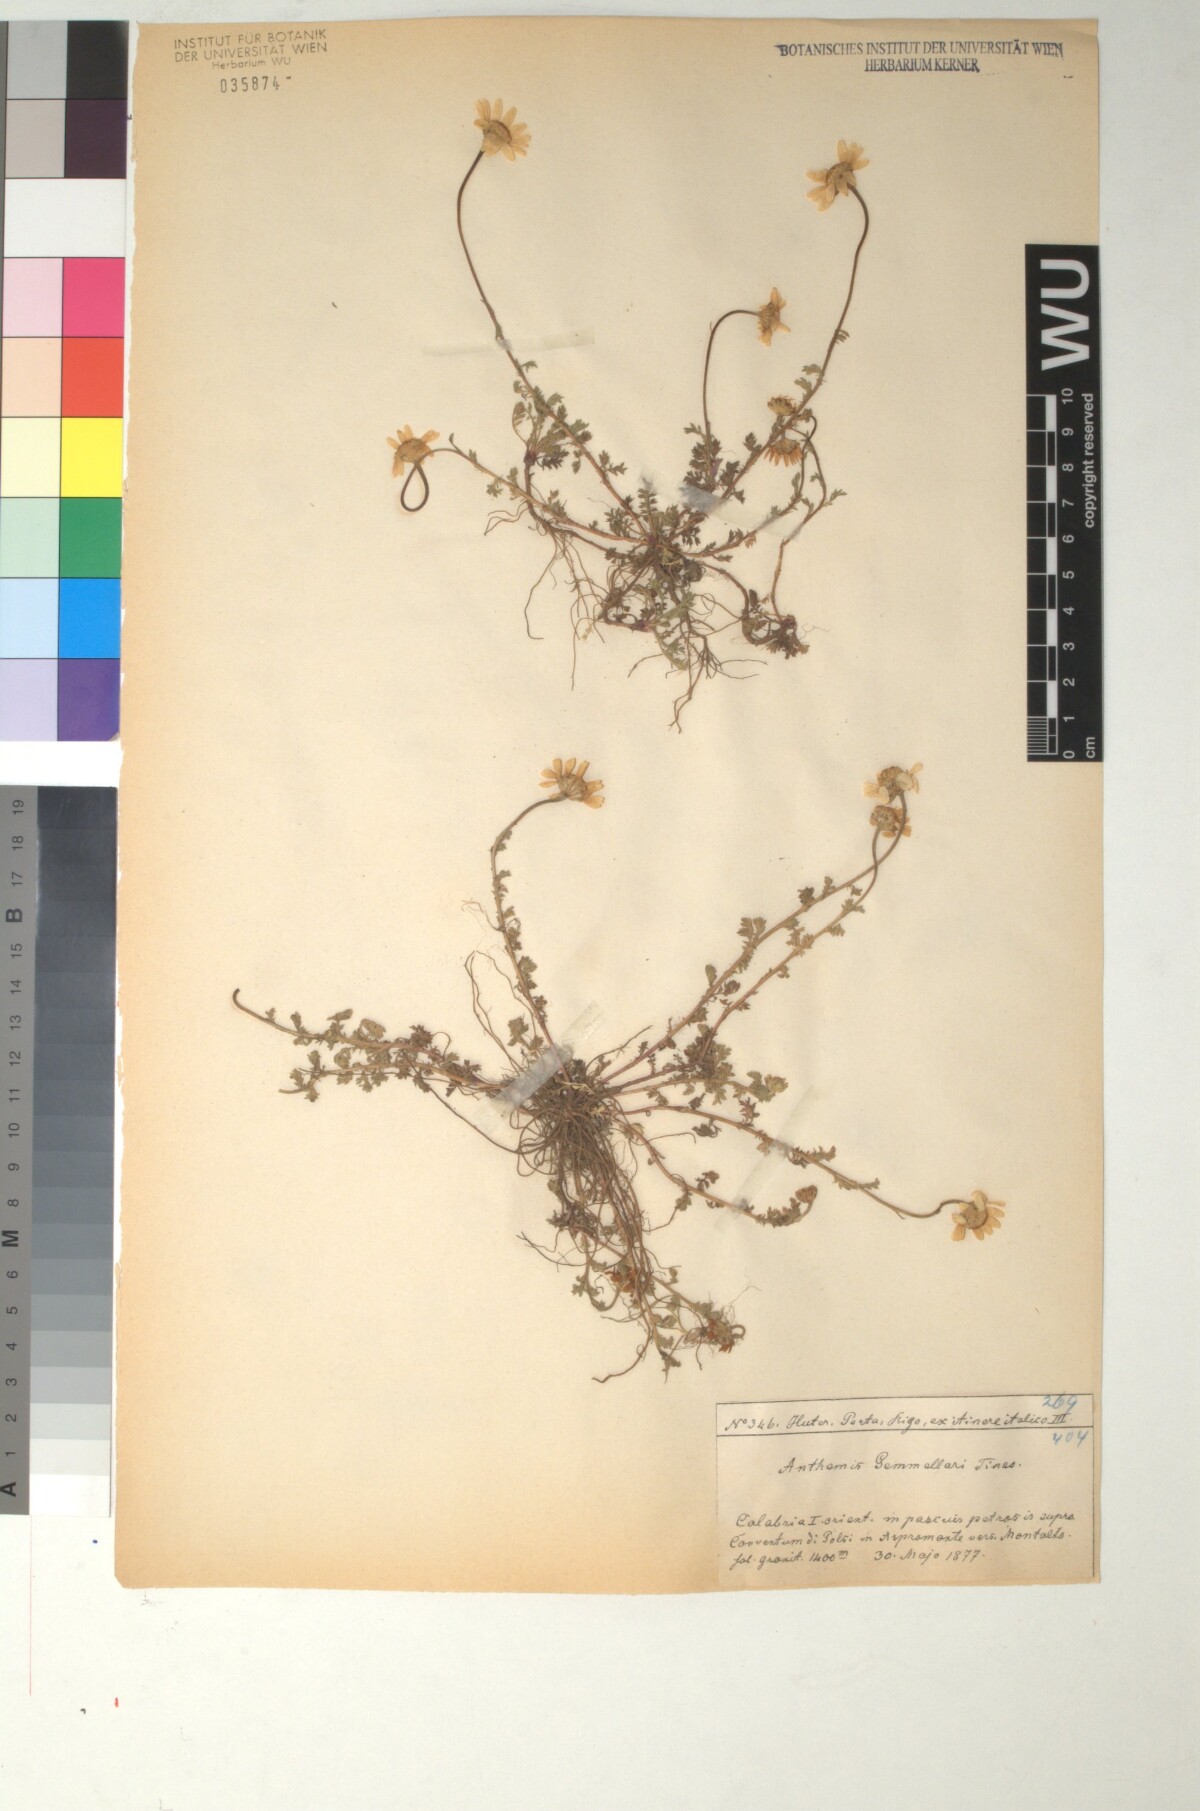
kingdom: Plantae
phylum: Tracheophyta
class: Magnoliopsida
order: Asterales
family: Asteraceae
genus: Anthemis
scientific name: Anthemis arvensis
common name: Corn chamomile
